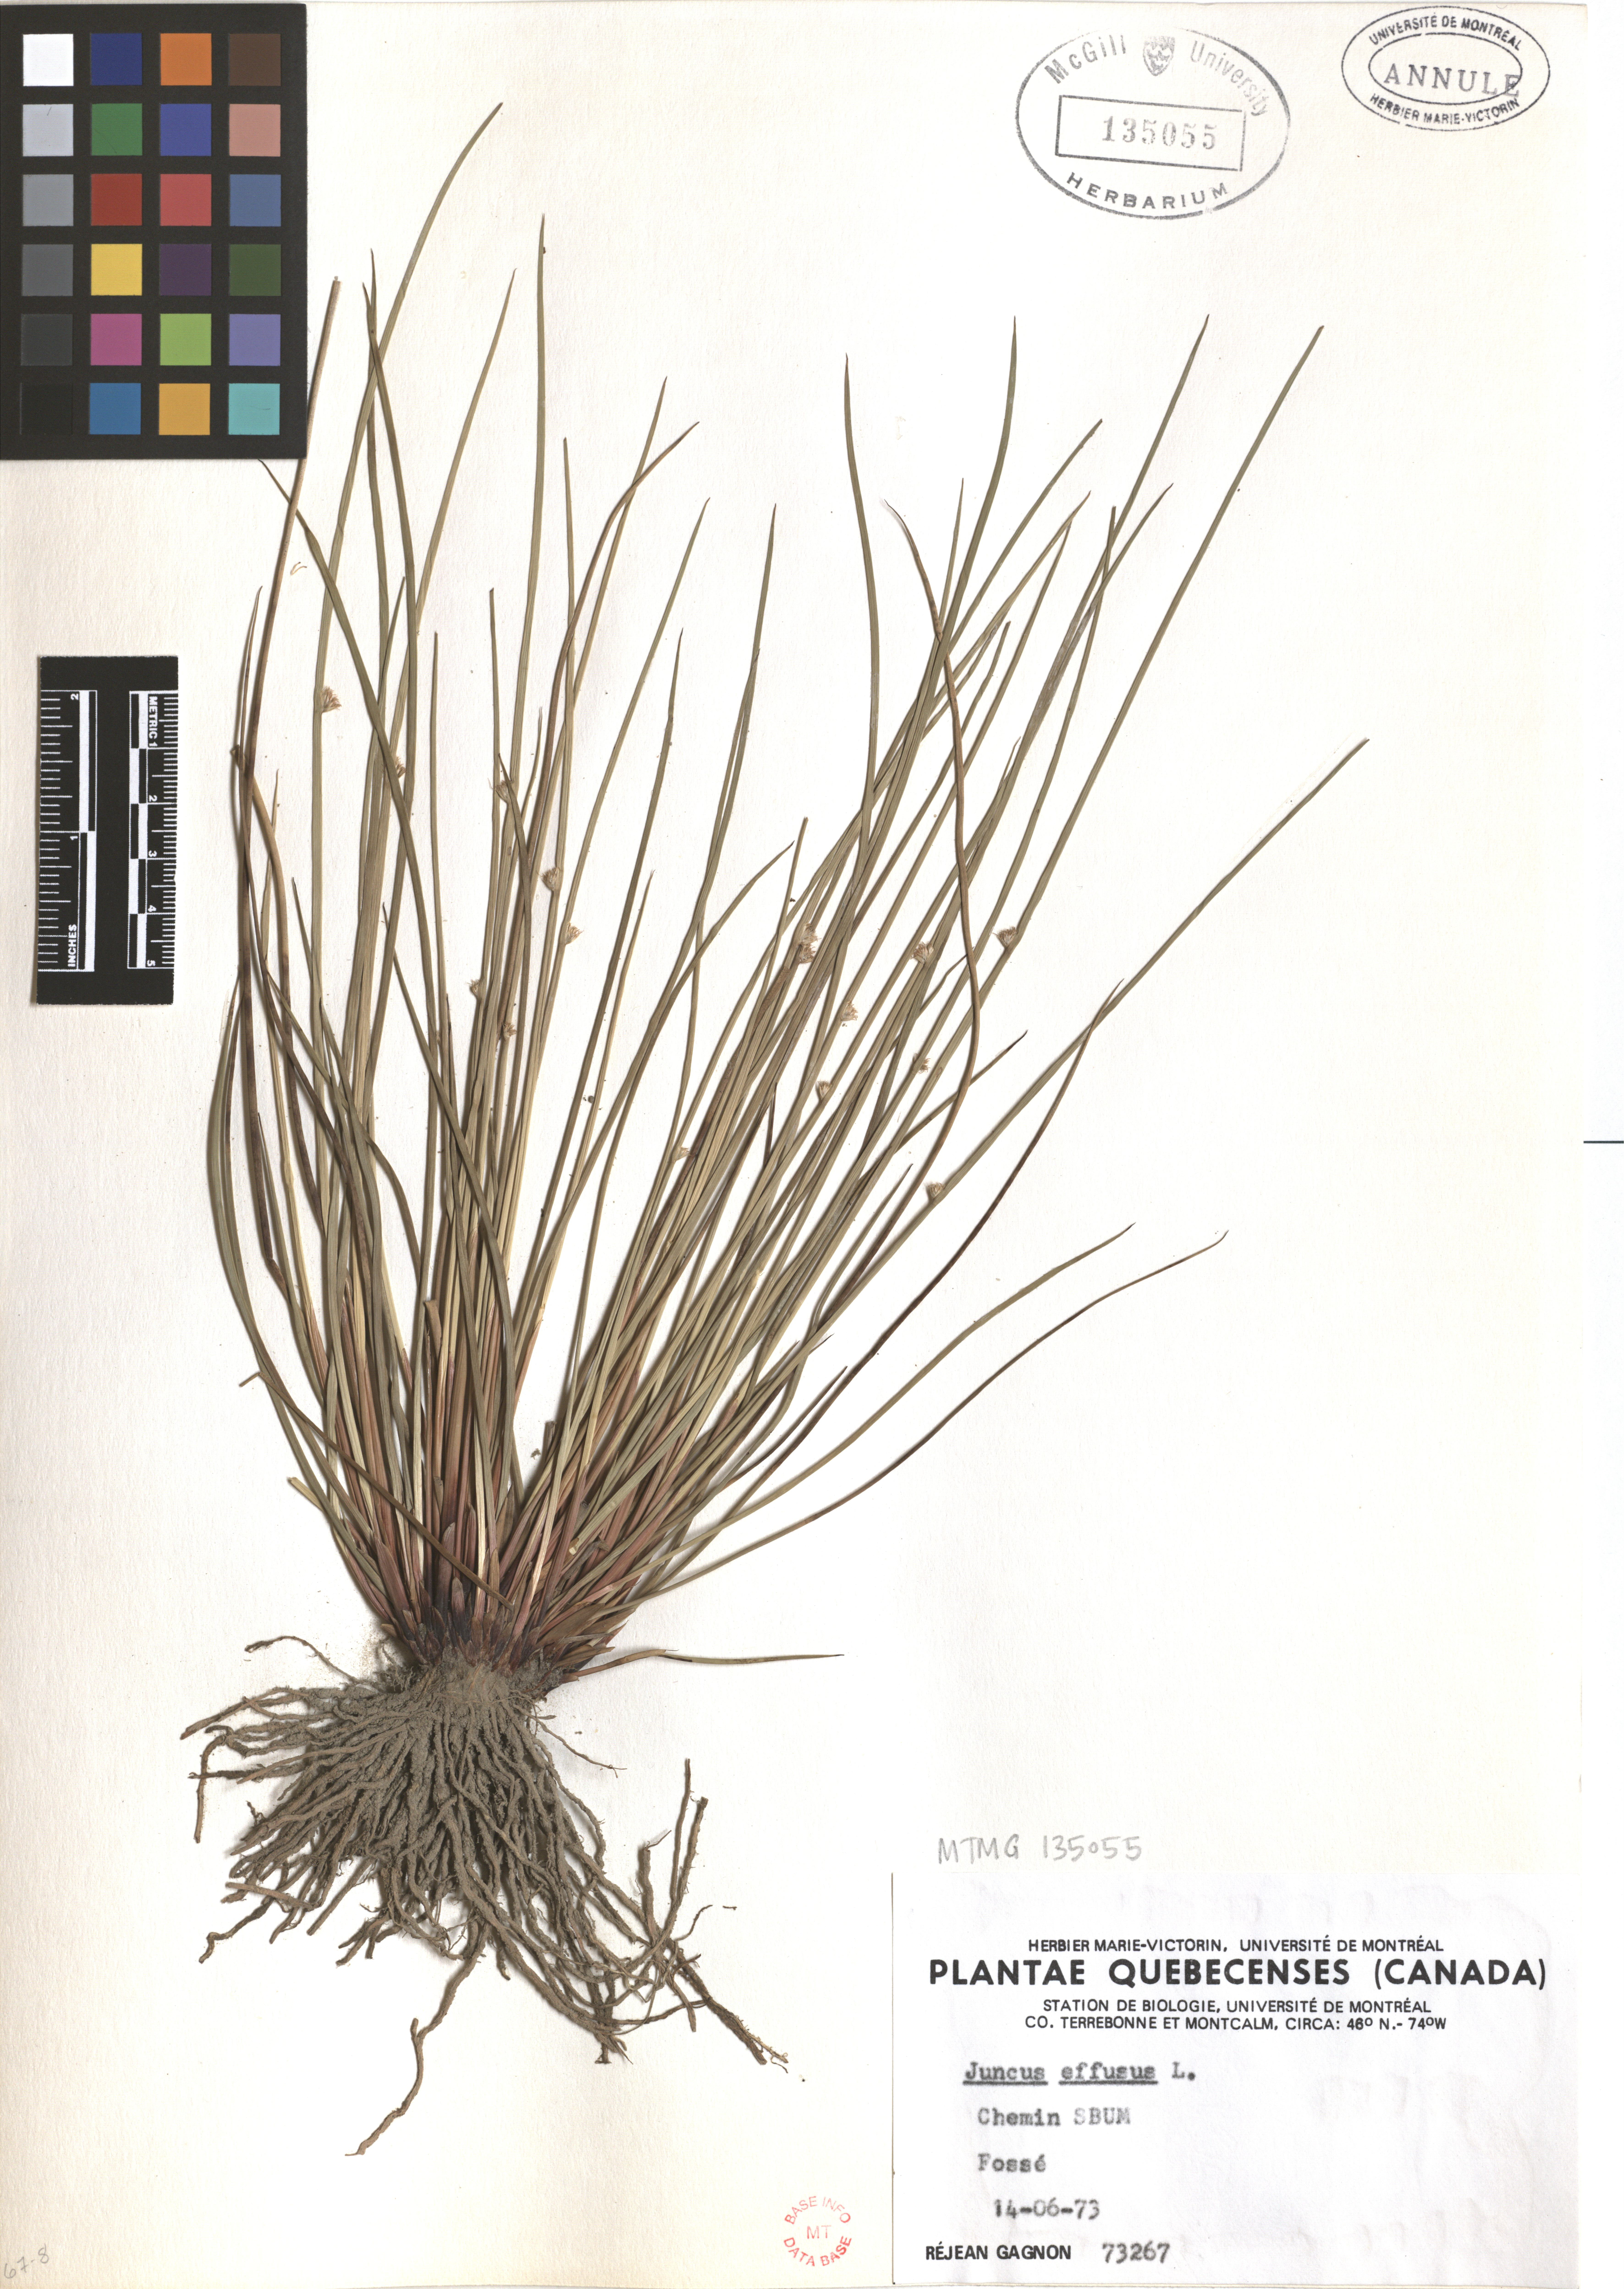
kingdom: Plantae
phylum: Tracheophyta
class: Liliopsida
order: Poales
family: Juncaceae
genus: Juncus
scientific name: Juncus effusus
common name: Soft rush
